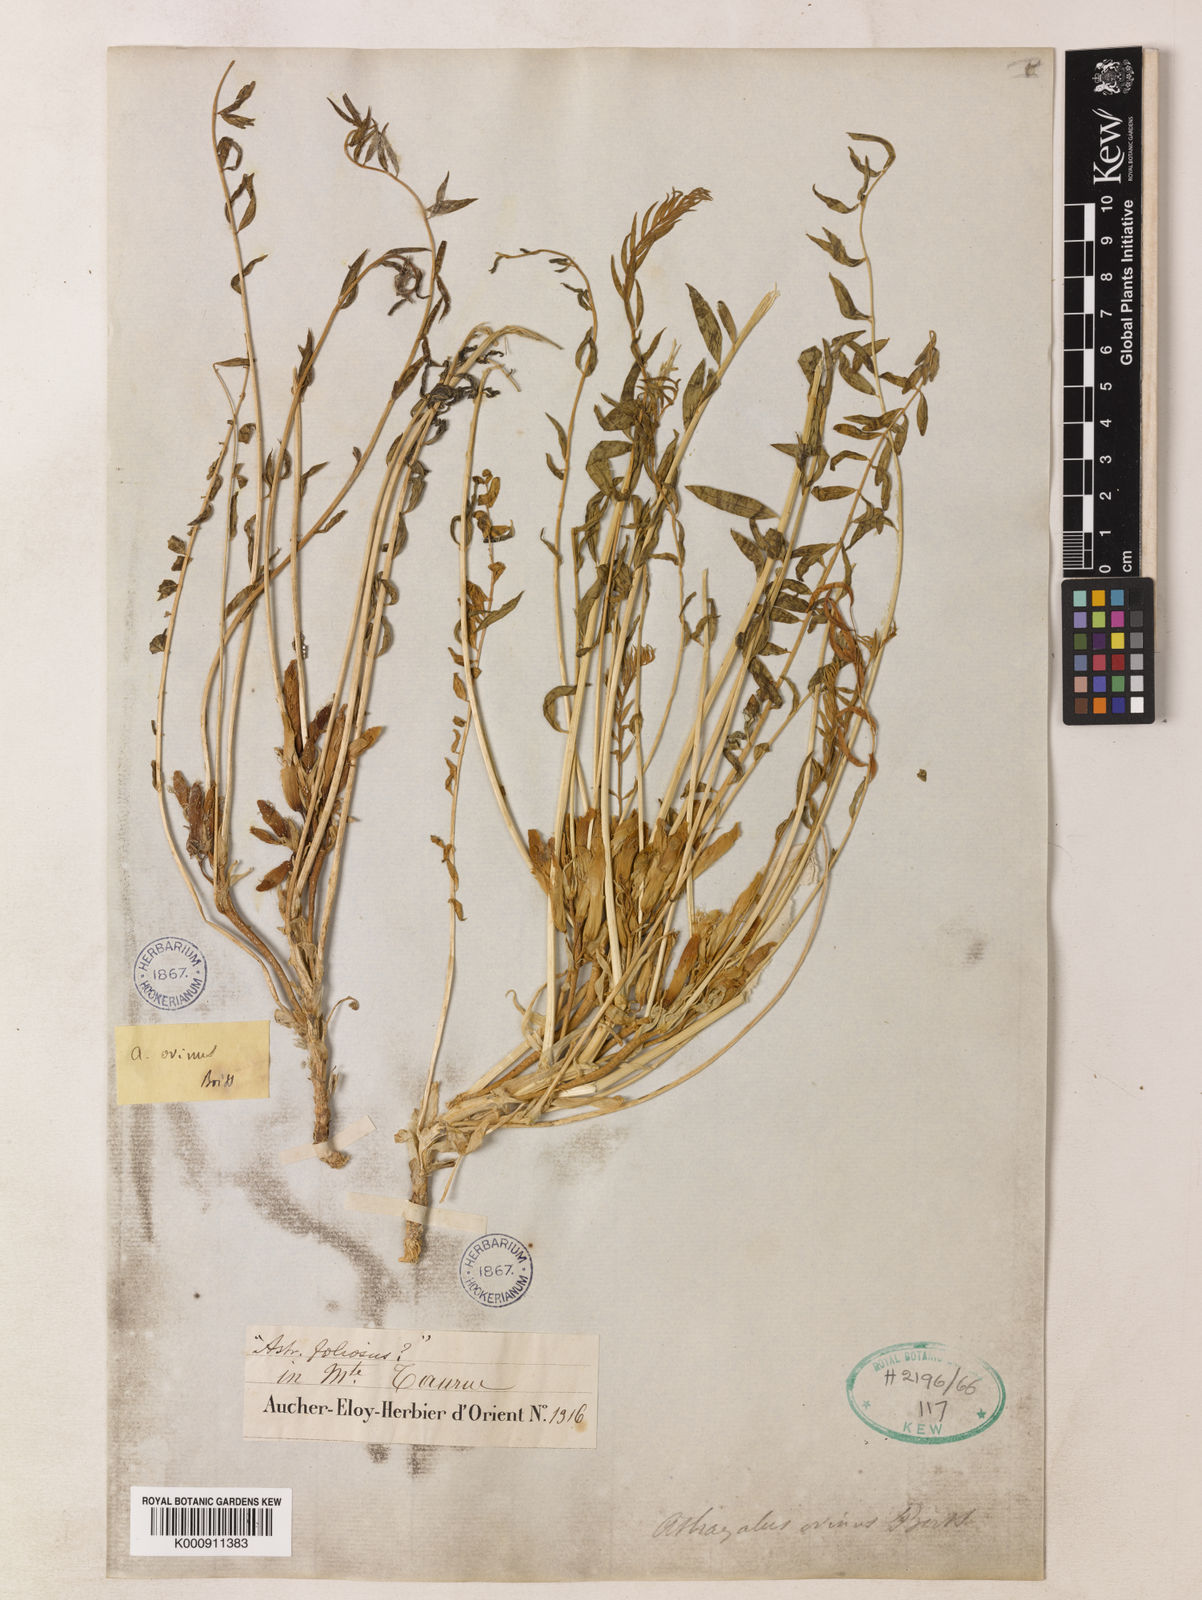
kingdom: Plantae
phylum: Tracheophyta
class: Magnoliopsida
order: Fabales
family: Fabaceae
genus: Astragalus
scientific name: Astragalus ovinus
